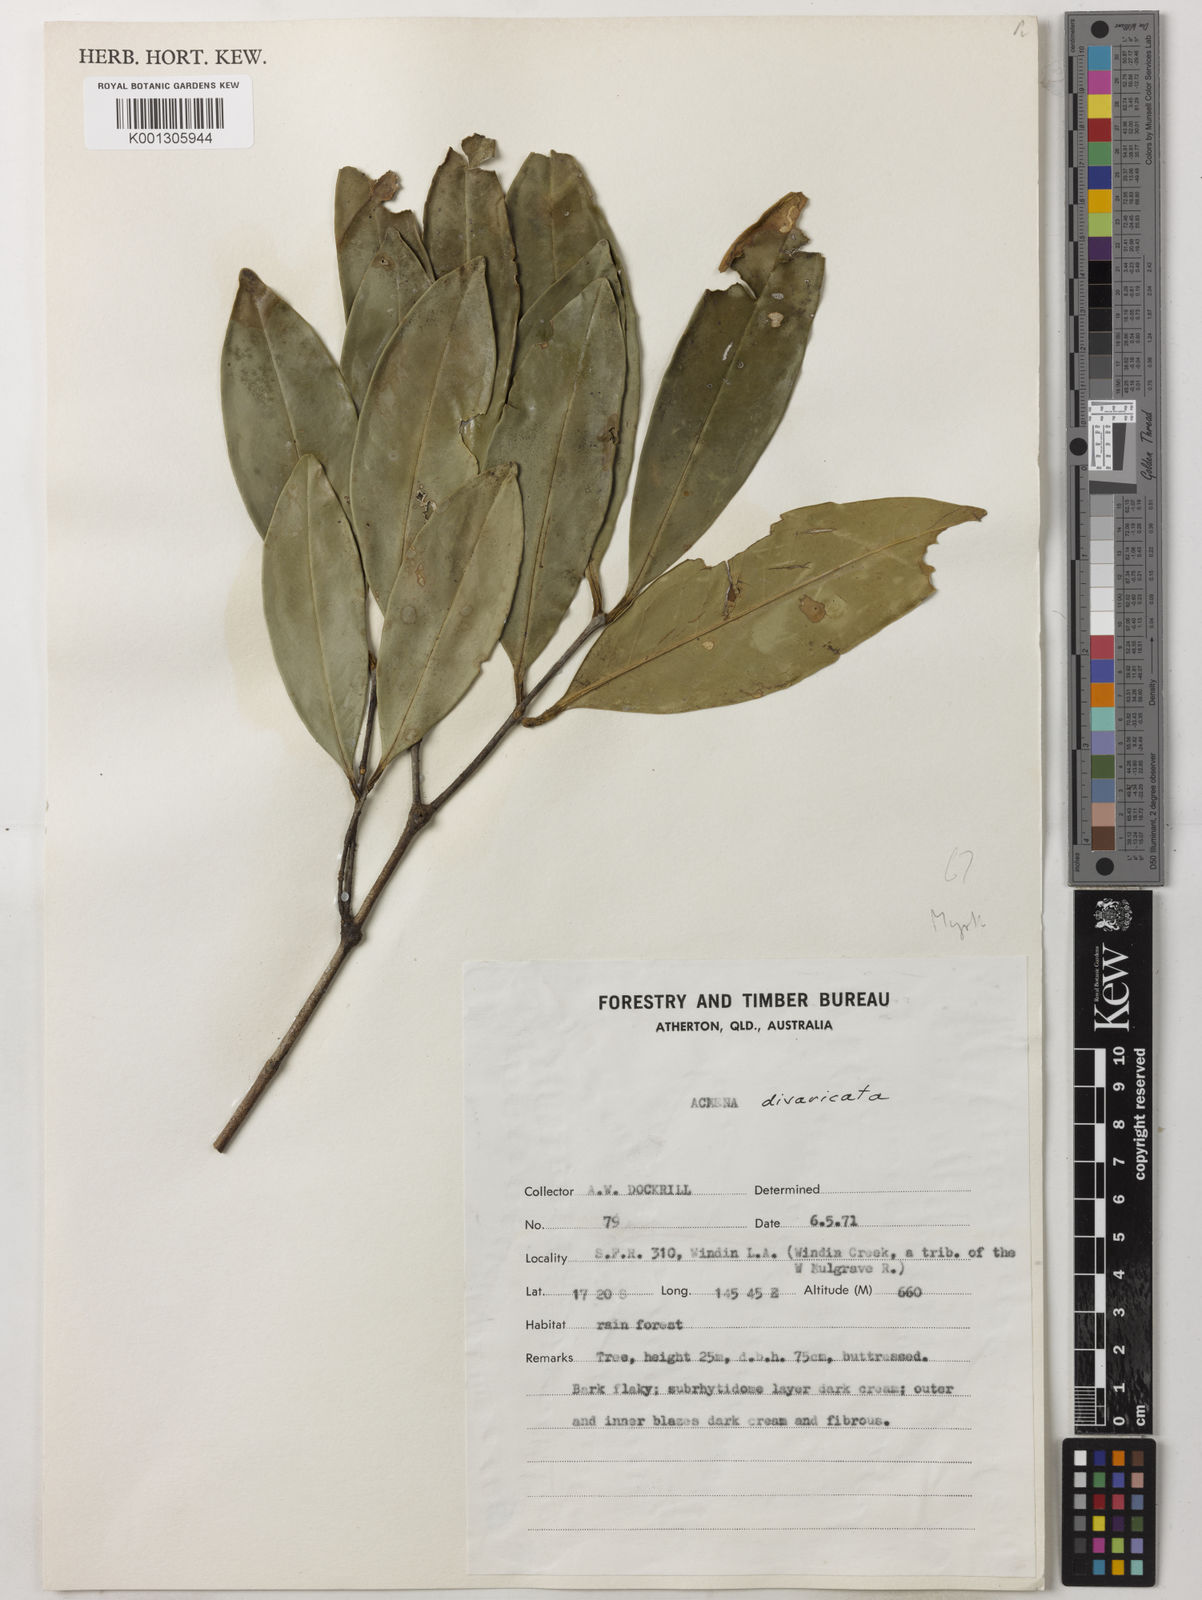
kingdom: Plantae
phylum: Tracheophyta
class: Magnoliopsida
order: Myrtales
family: Myrtaceae
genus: Syzygium
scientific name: Syzygium divaricatum
